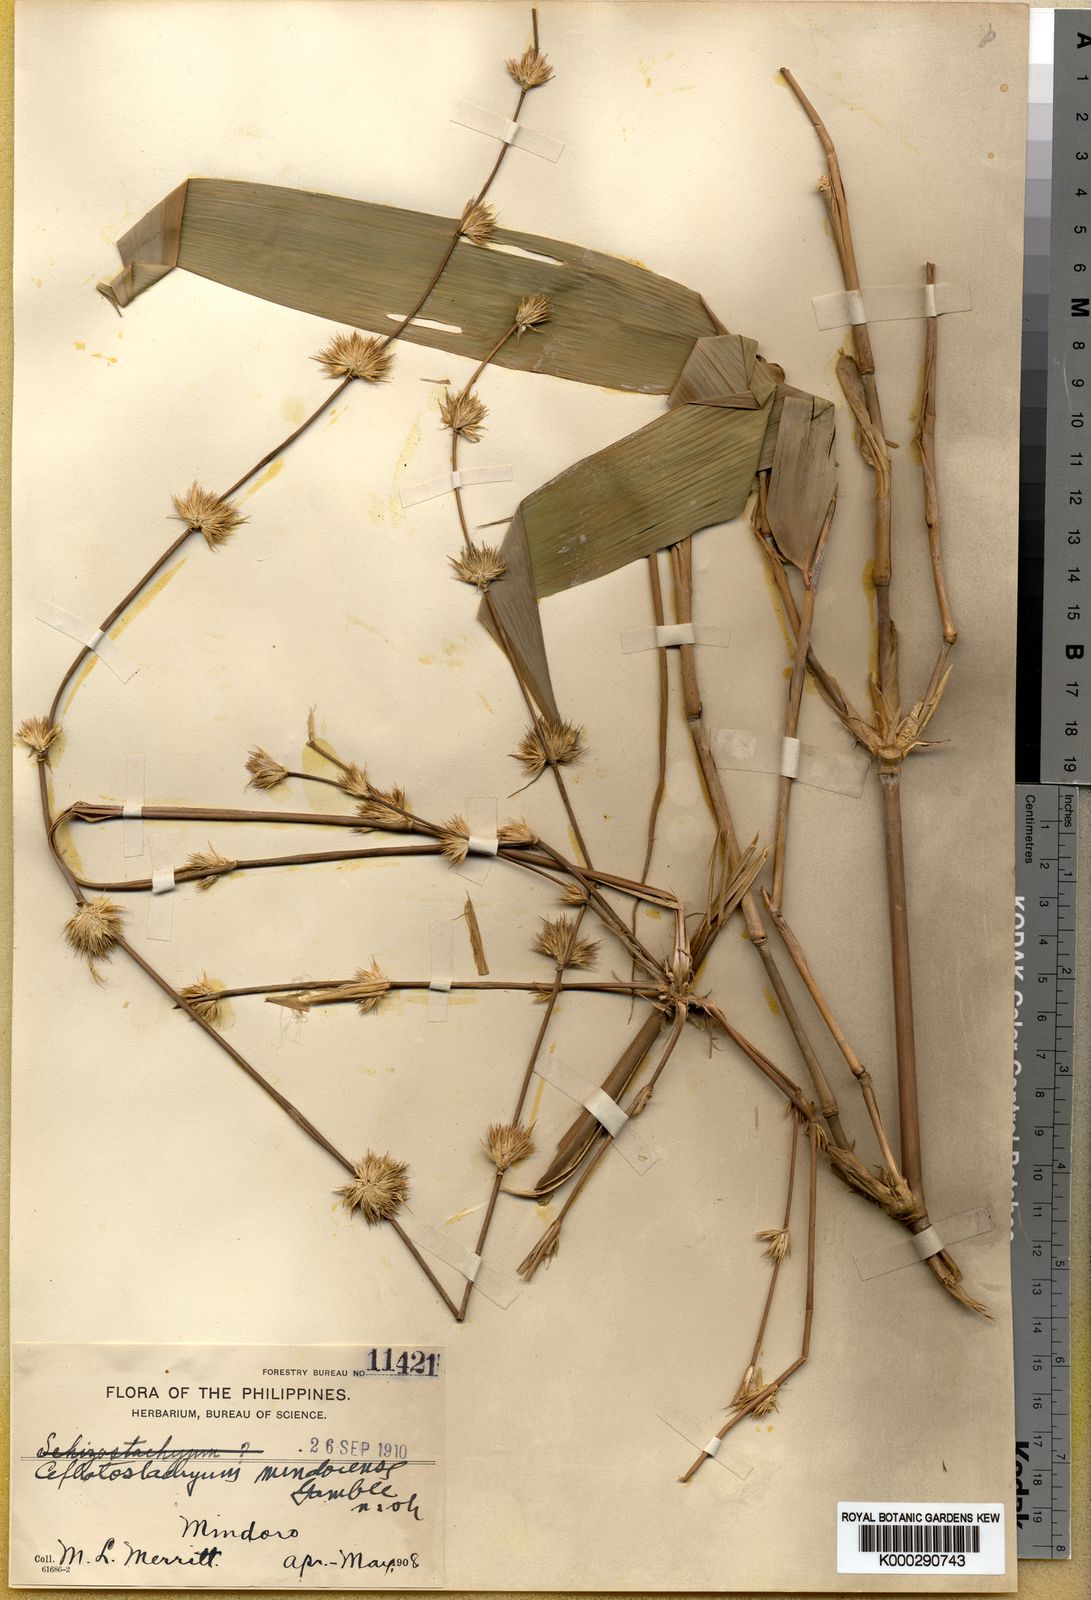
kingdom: Plantae
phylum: Tracheophyta
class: Liliopsida
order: Poales
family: Poaceae
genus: Cephalostachyum
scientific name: Cephalostachyum mindorense
